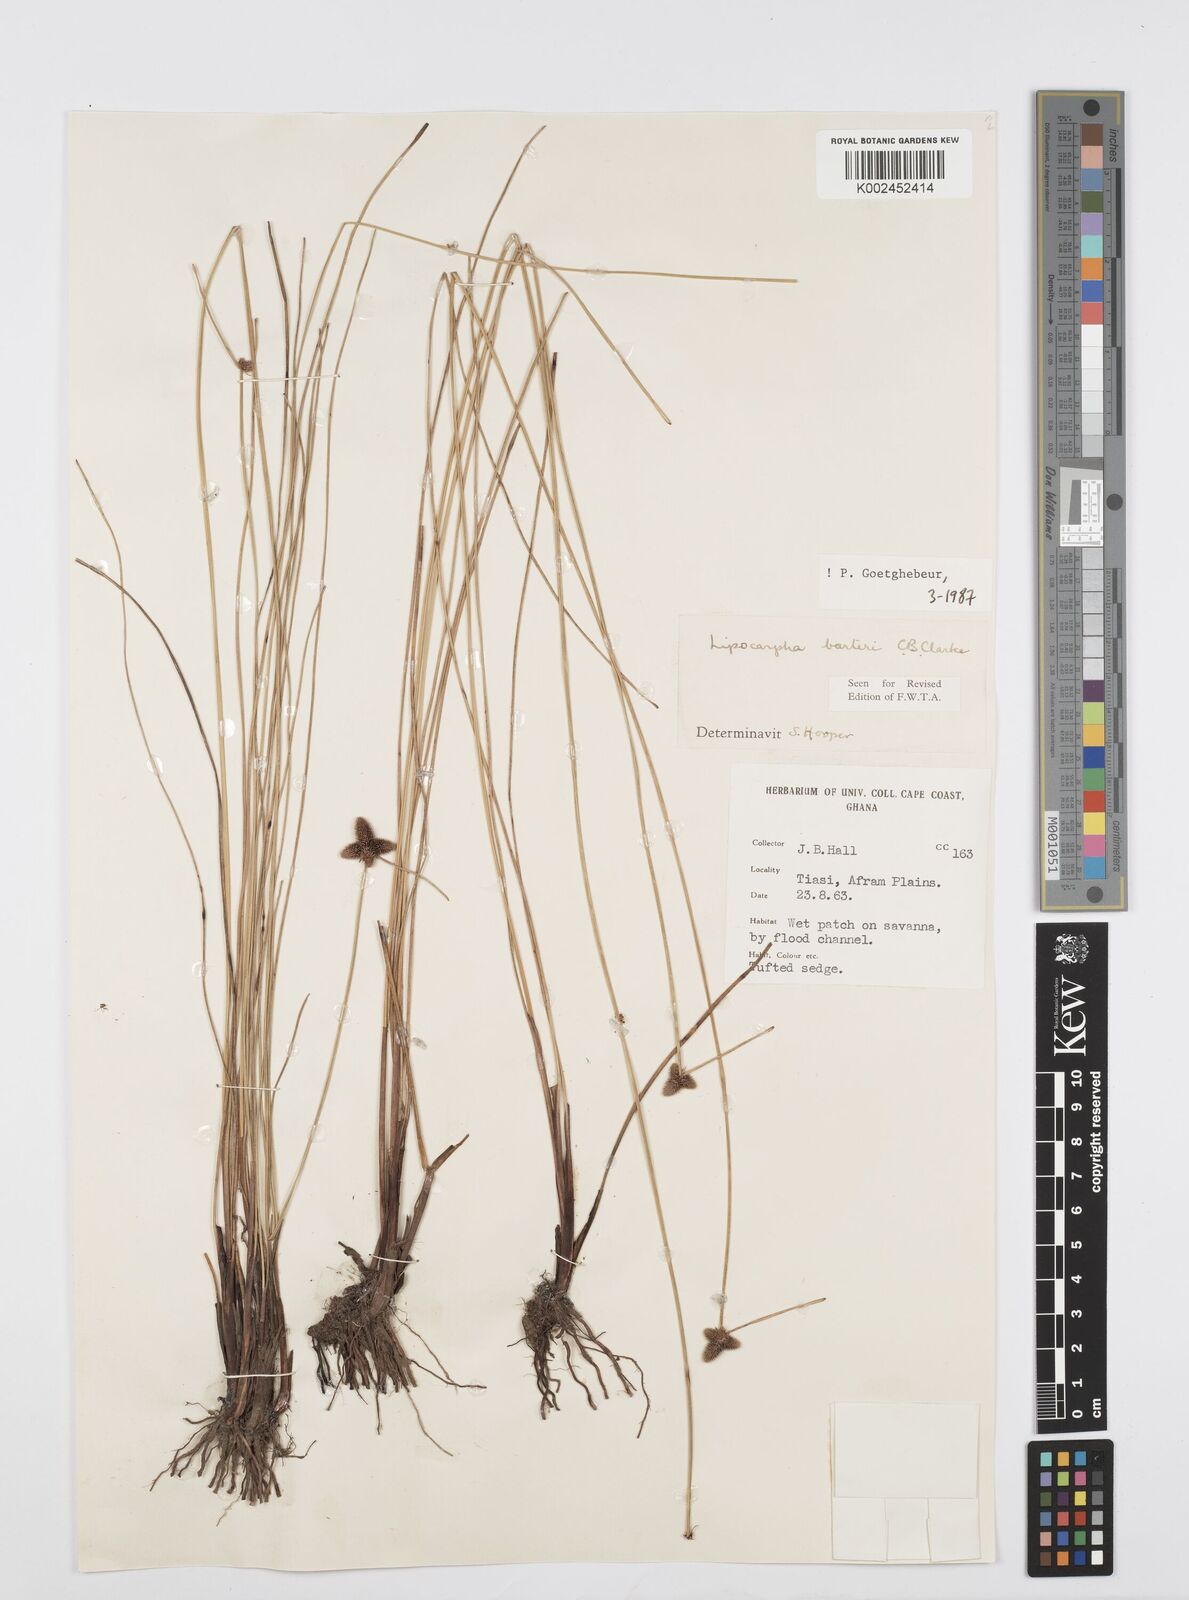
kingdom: Plantae
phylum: Tracheophyta
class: Liliopsida
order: Poales
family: Cyperaceae
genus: Cyperus
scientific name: Cyperus pustulatus
